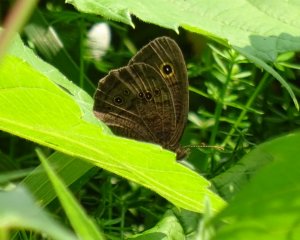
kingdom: Animalia
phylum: Arthropoda
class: Insecta
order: Lepidoptera
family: Nymphalidae
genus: Cercyonis
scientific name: Cercyonis pegala
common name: Common Wood-Nymph
